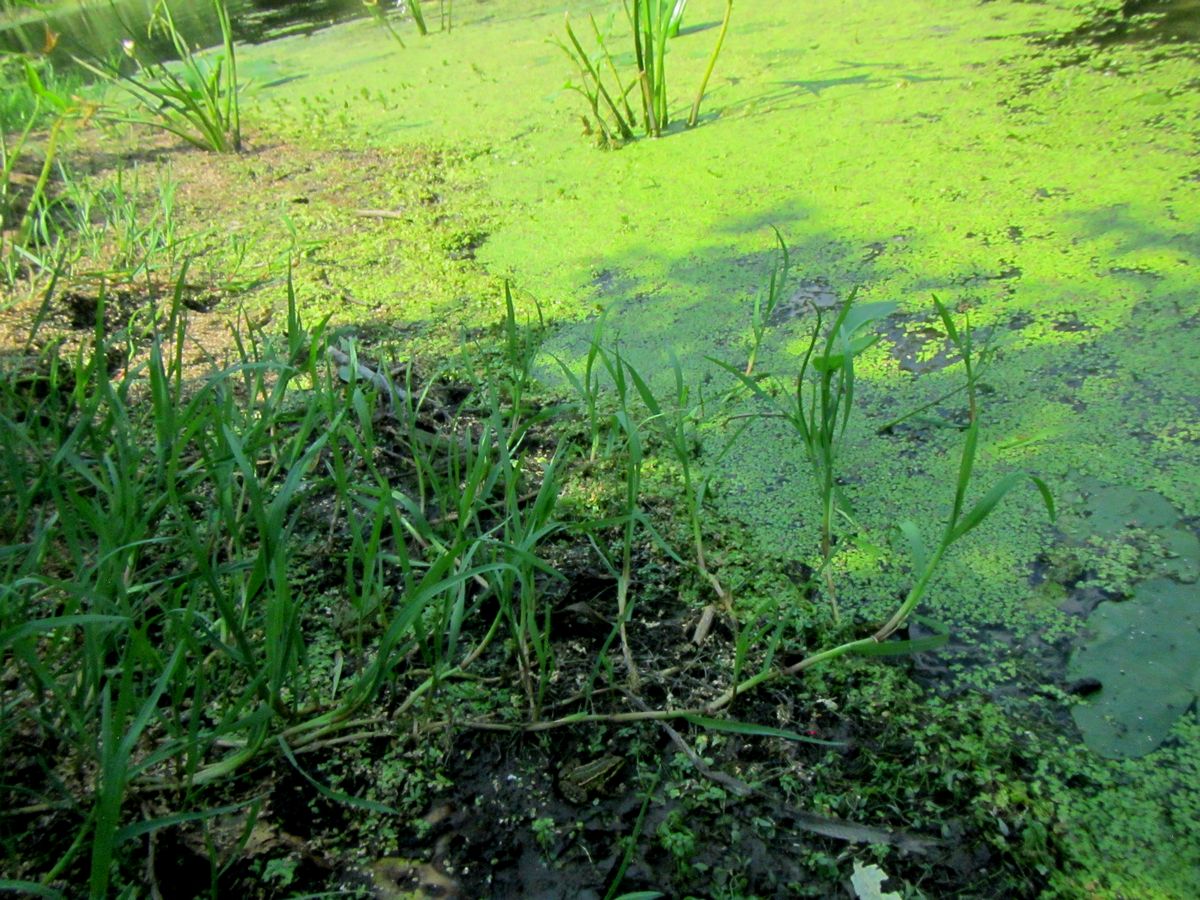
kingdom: Plantae
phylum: Tracheophyta
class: Liliopsida
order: Poales
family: Poaceae
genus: Catabrosa
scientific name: Catabrosa aquatica
